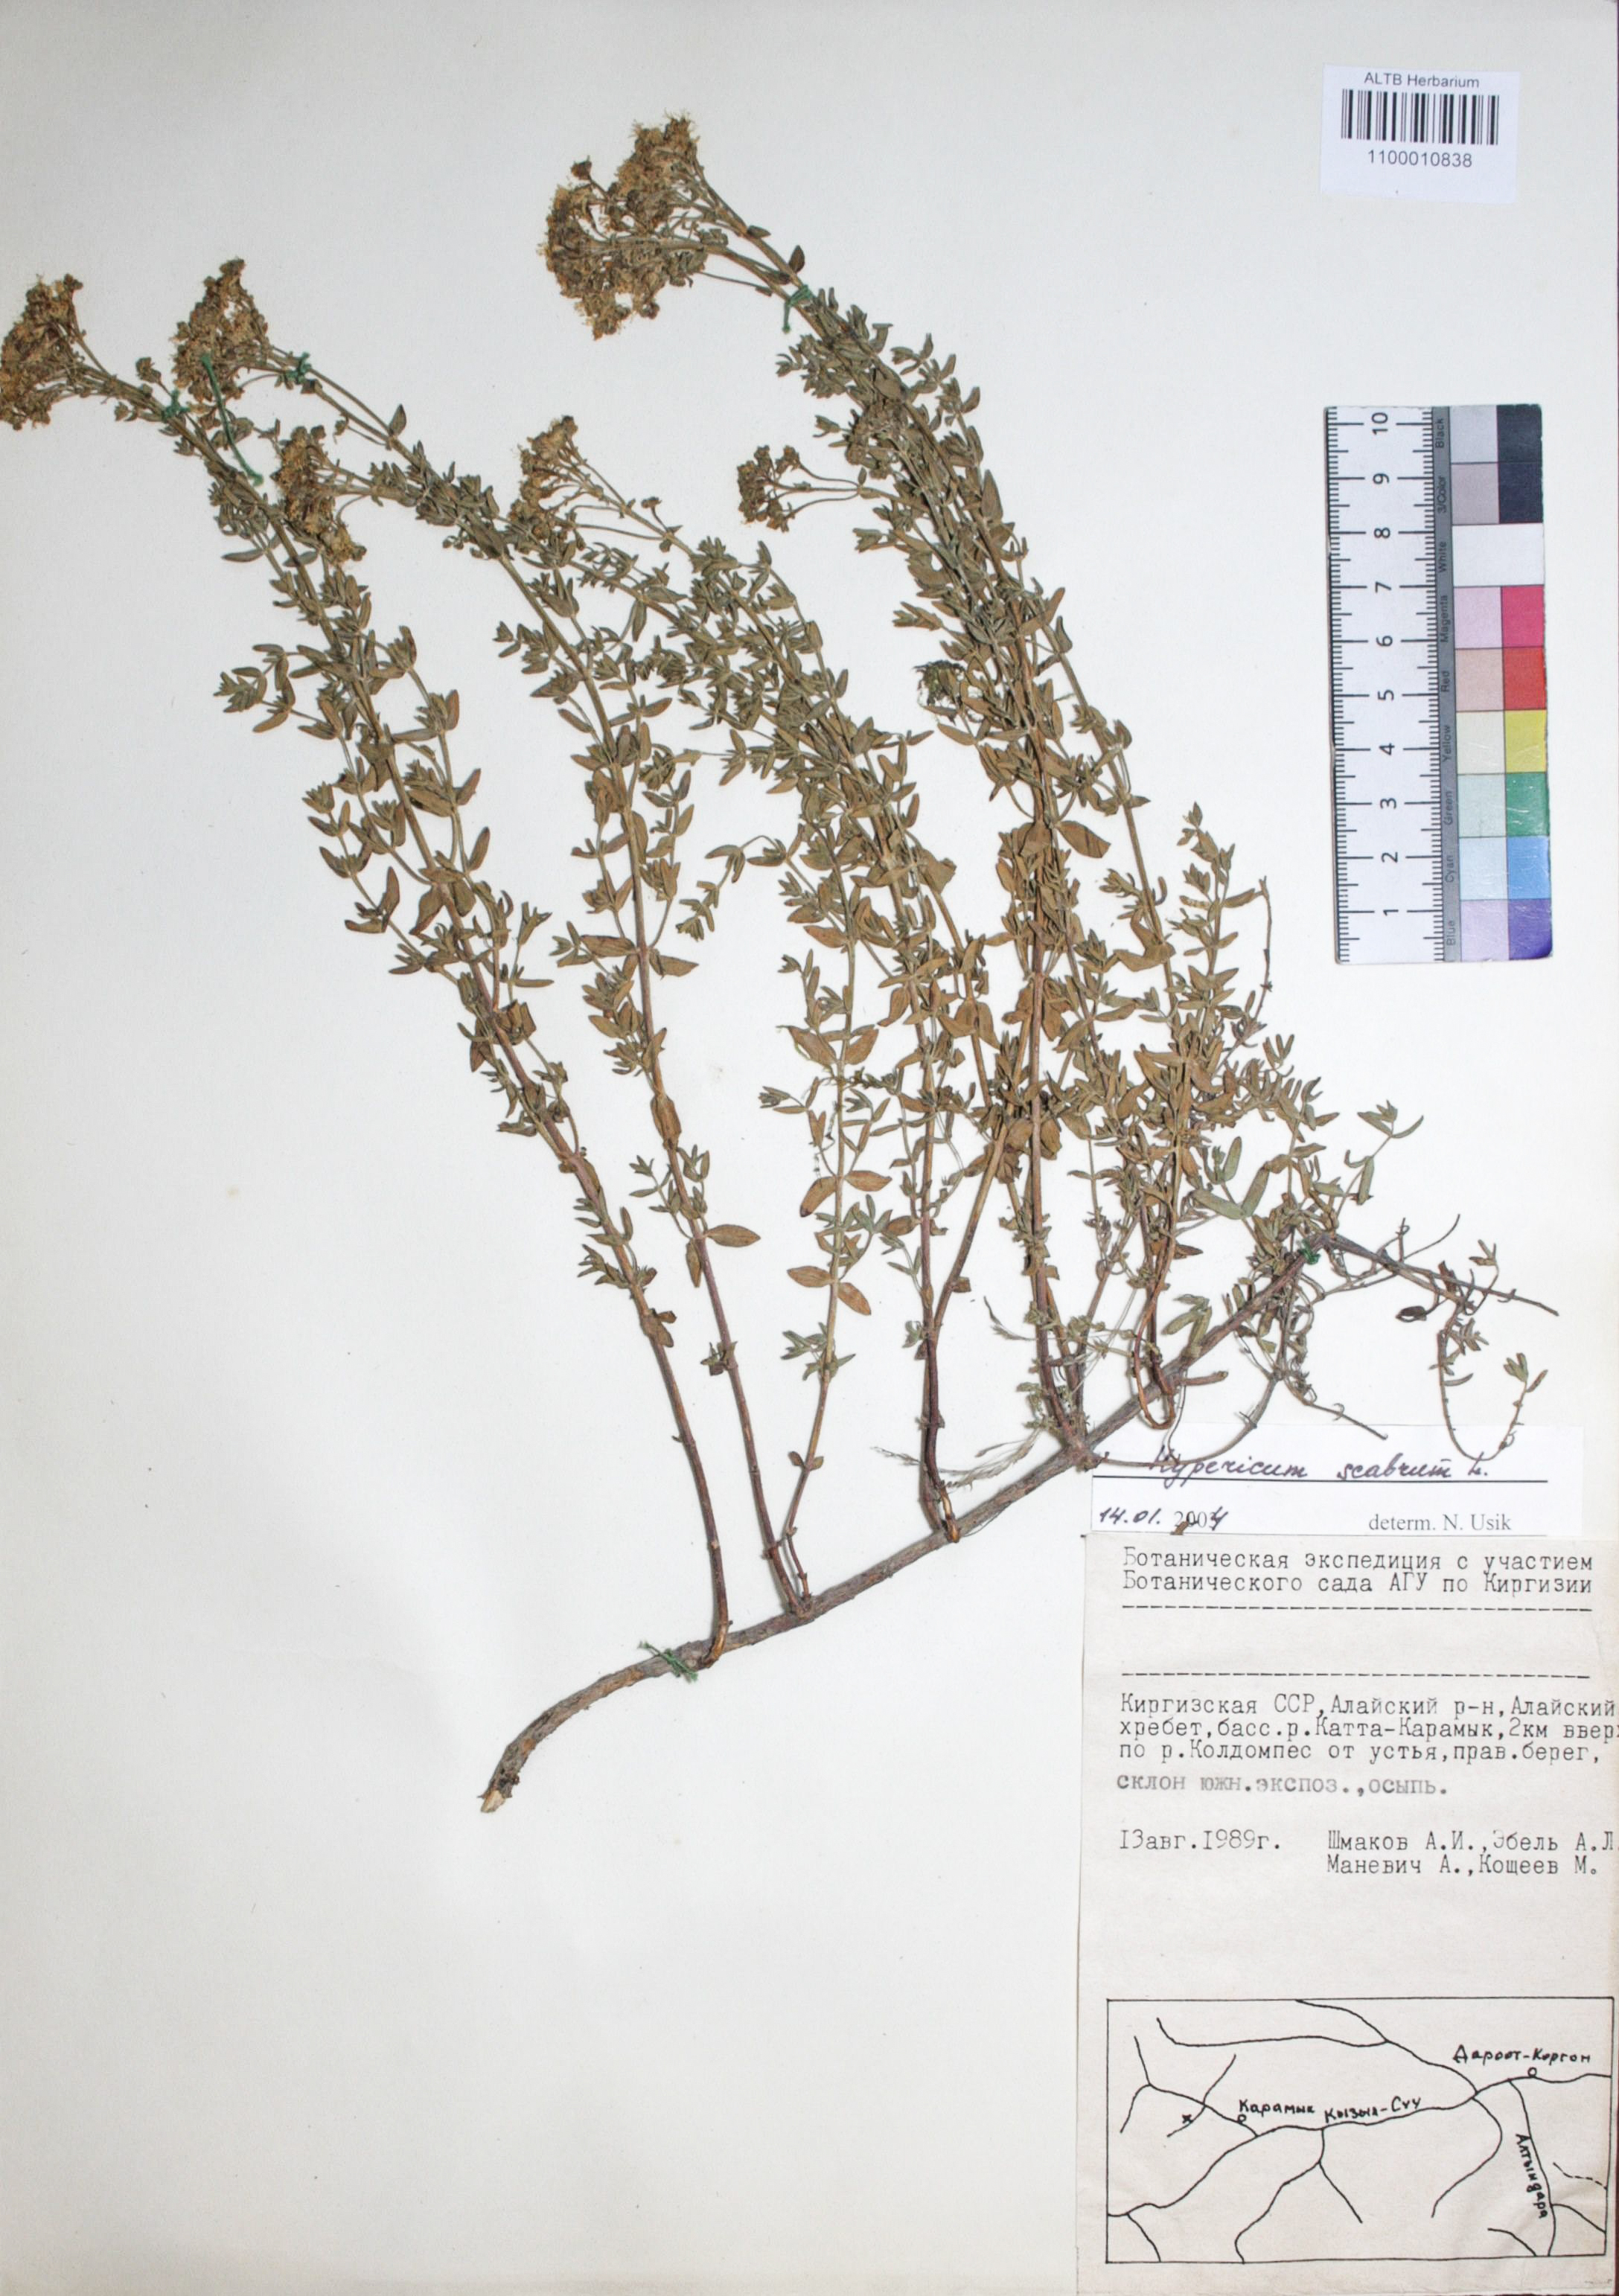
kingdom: Plantae
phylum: Tracheophyta
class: Magnoliopsida
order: Malpighiales
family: Hypericaceae
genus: Hypericum
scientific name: Hypericum scabrum
